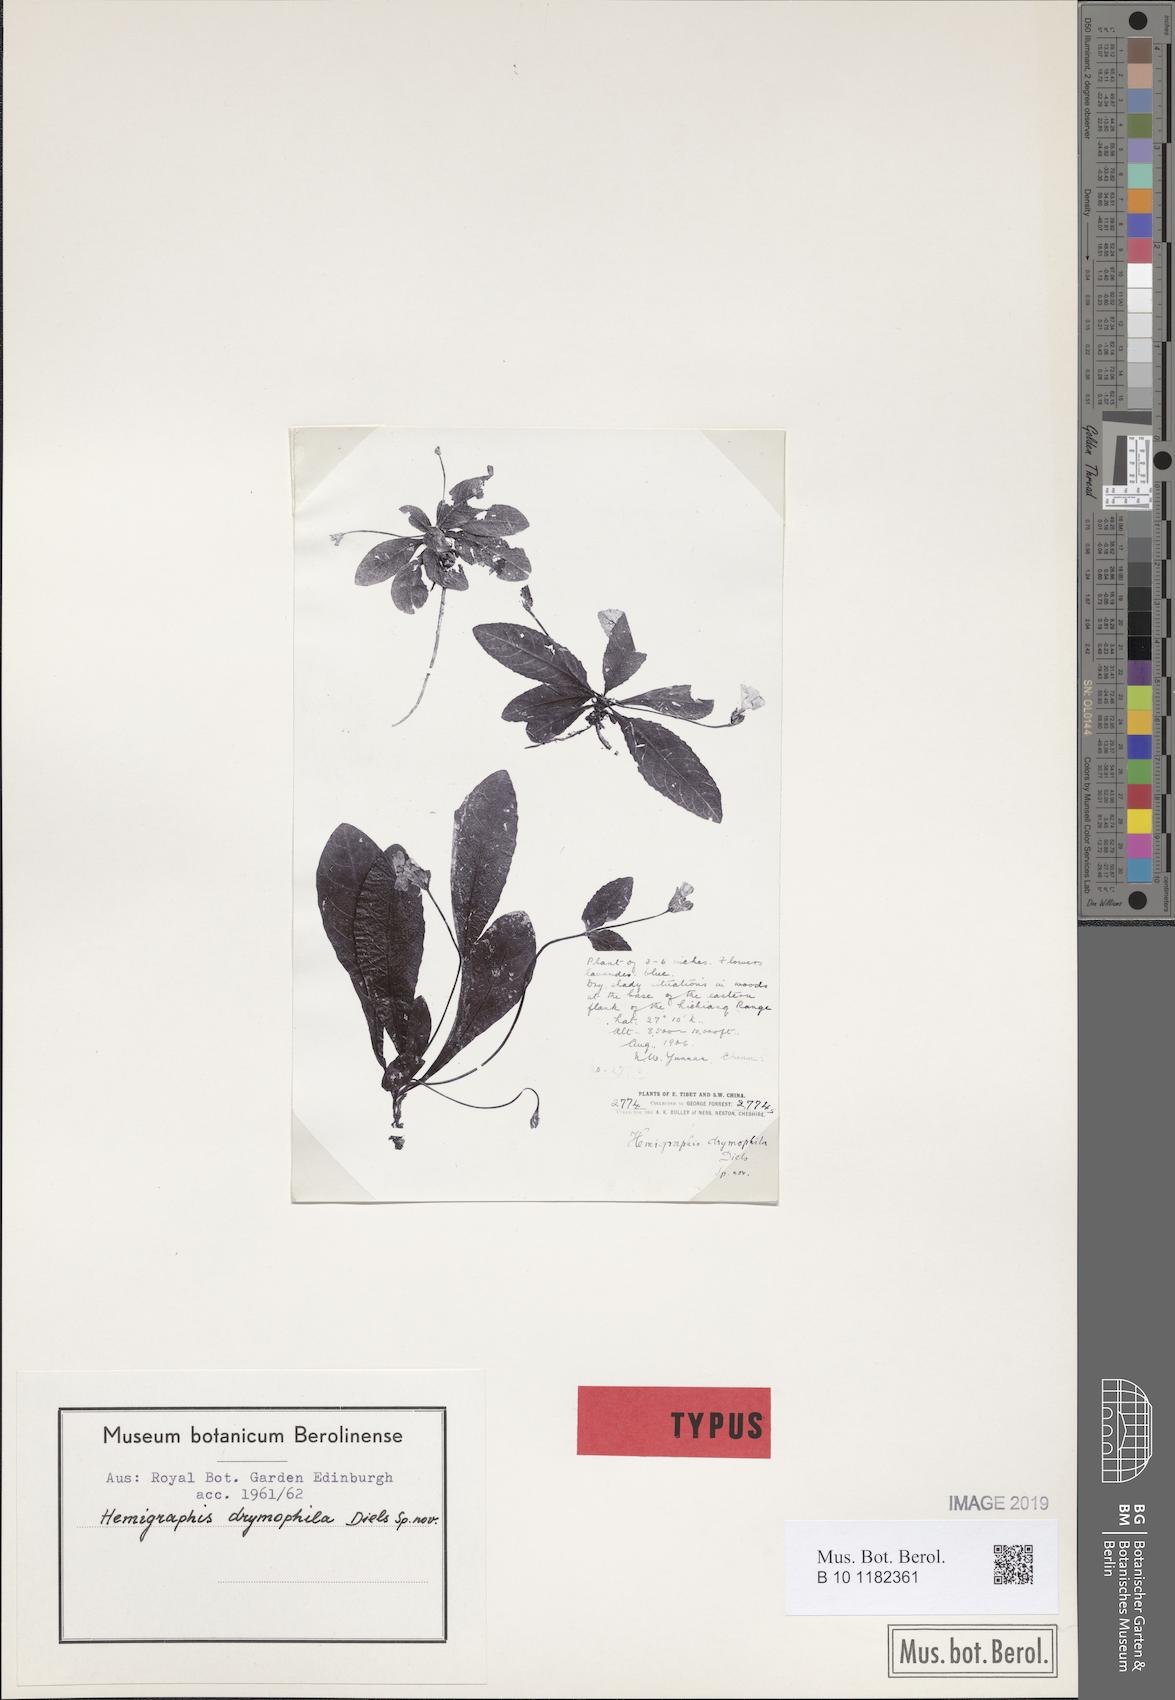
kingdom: Plantae
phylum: Tracheophyta
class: Magnoliopsida
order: Lamiales
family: Acanthaceae
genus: Pararuellia
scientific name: Pararuellia delavayana
